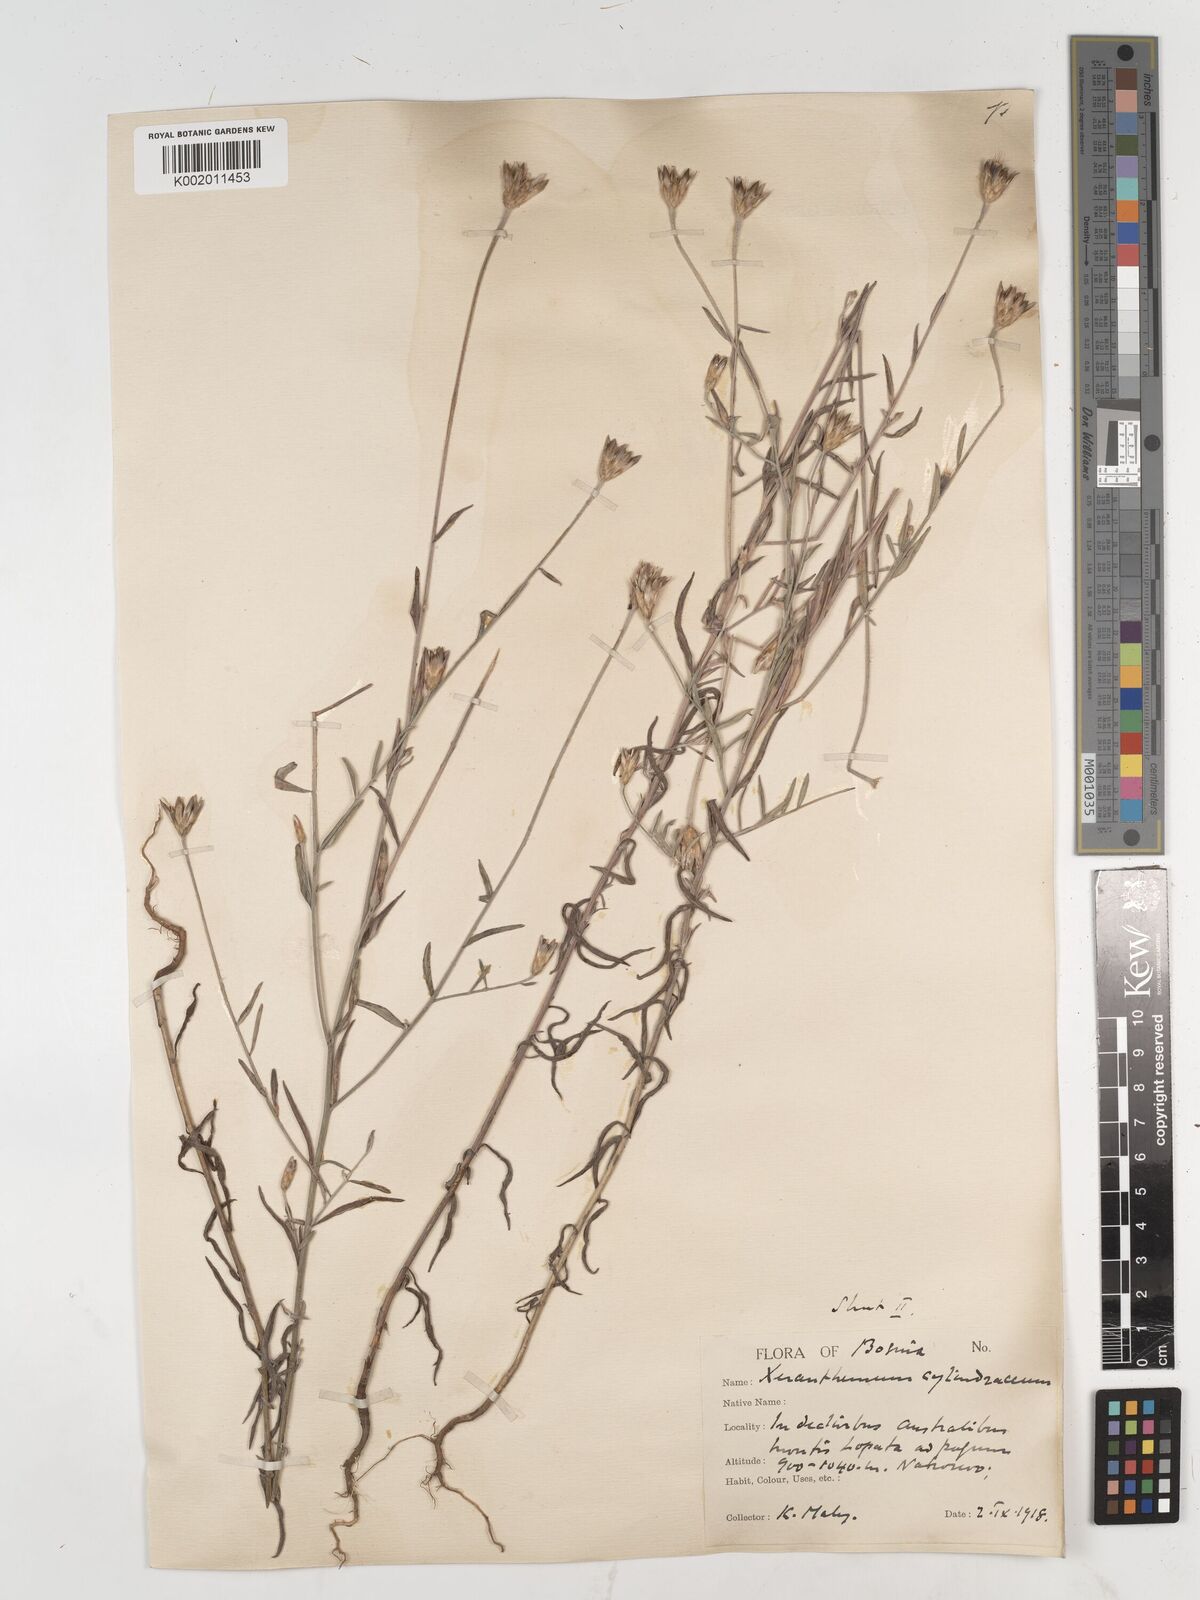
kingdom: Plantae
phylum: Tracheophyta
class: Magnoliopsida
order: Asterales
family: Asteraceae
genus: Xeranthemum
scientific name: Xeranthemum cylindraceum
